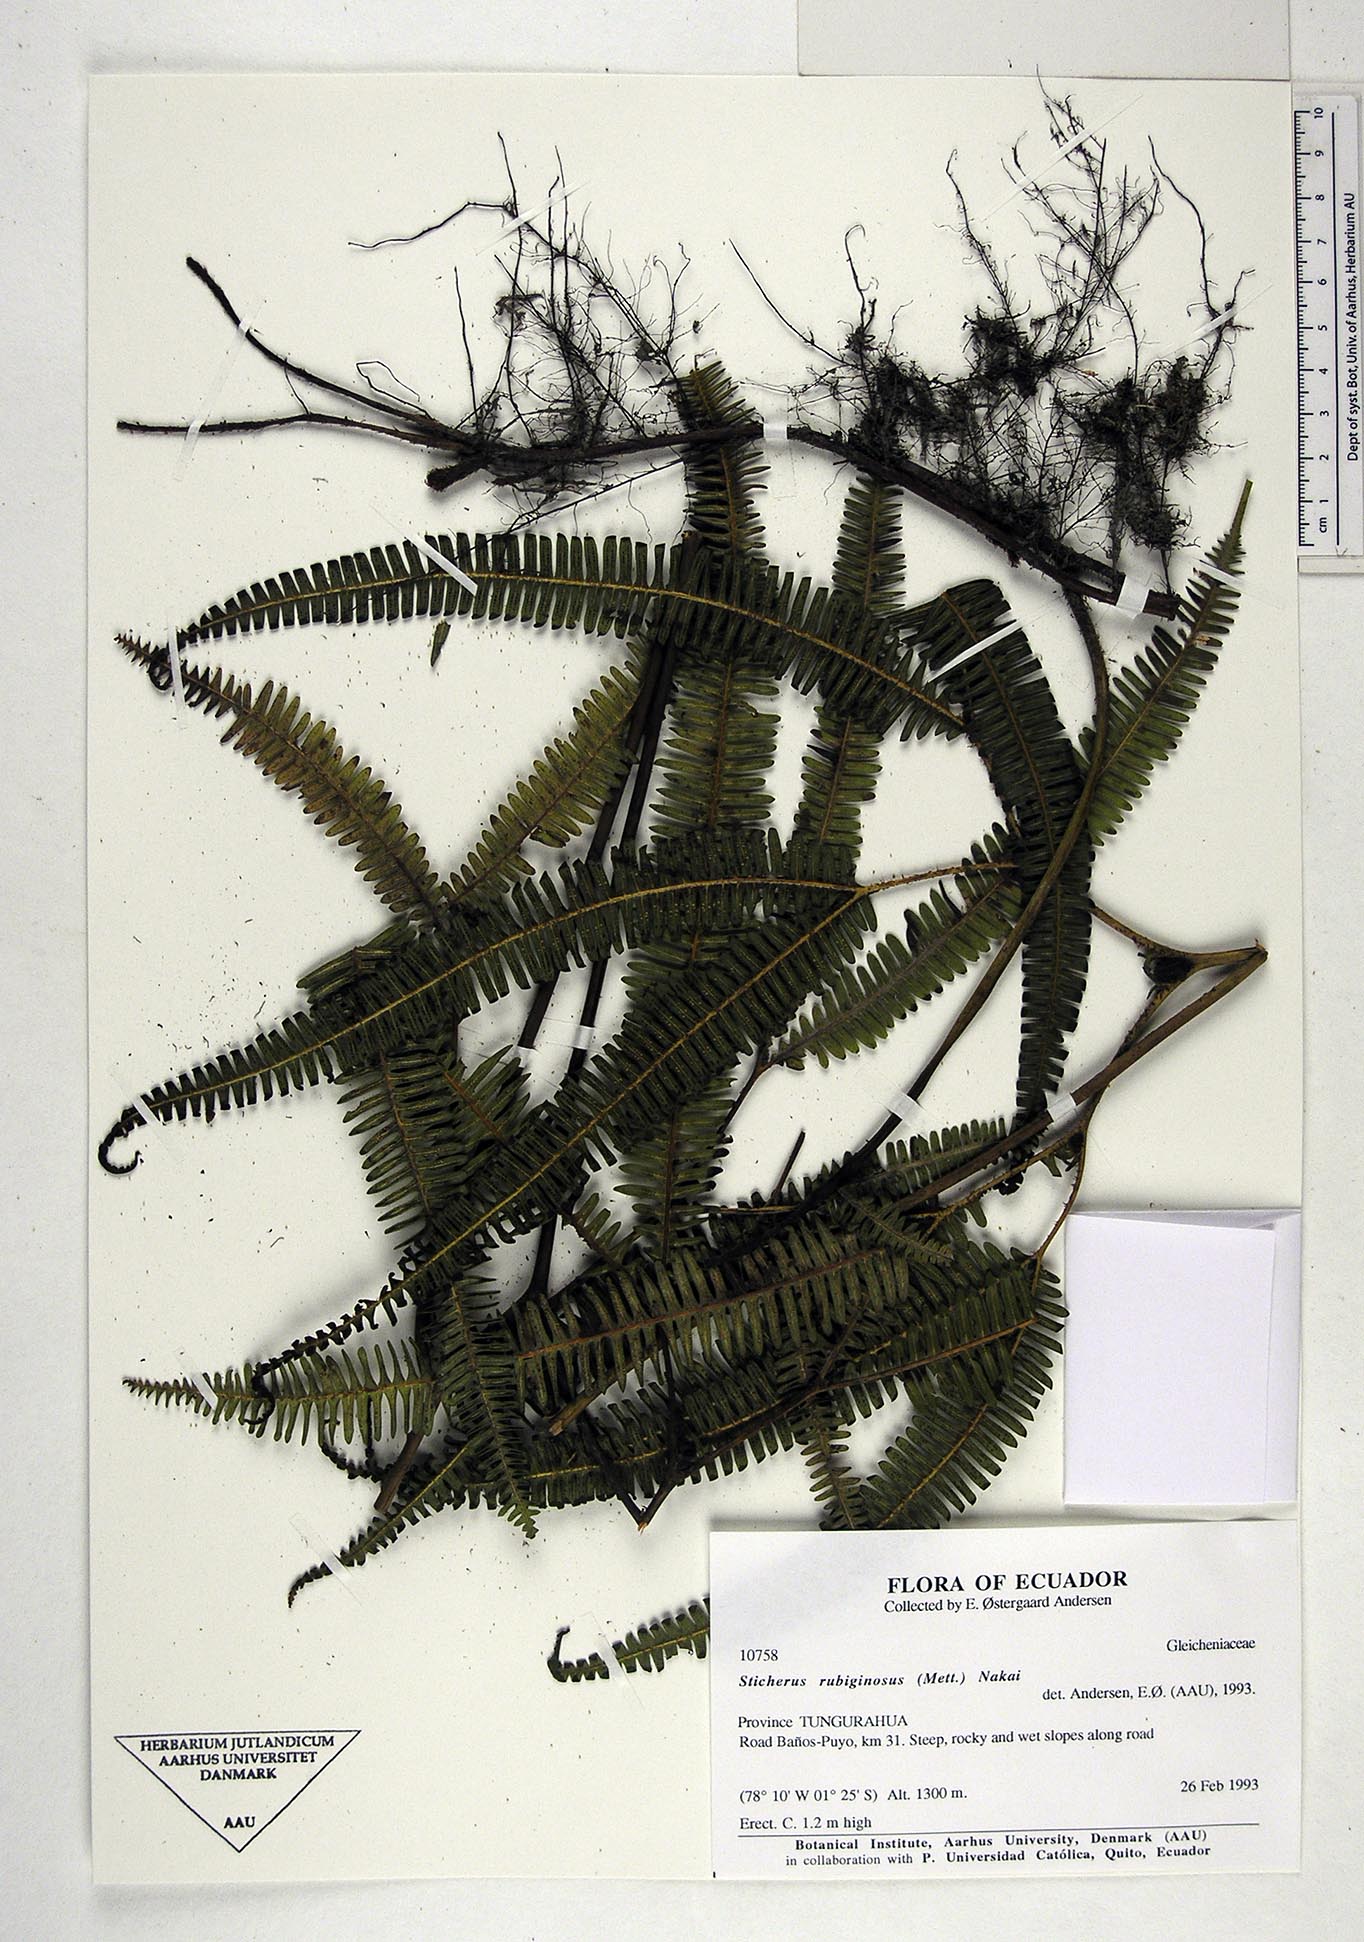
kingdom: Plantae
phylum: Tracheophyta
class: Polypodiopsida
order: Gleicheniales
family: Gleicheniaceae
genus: Sticherus
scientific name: Sticherus rubiginosus
